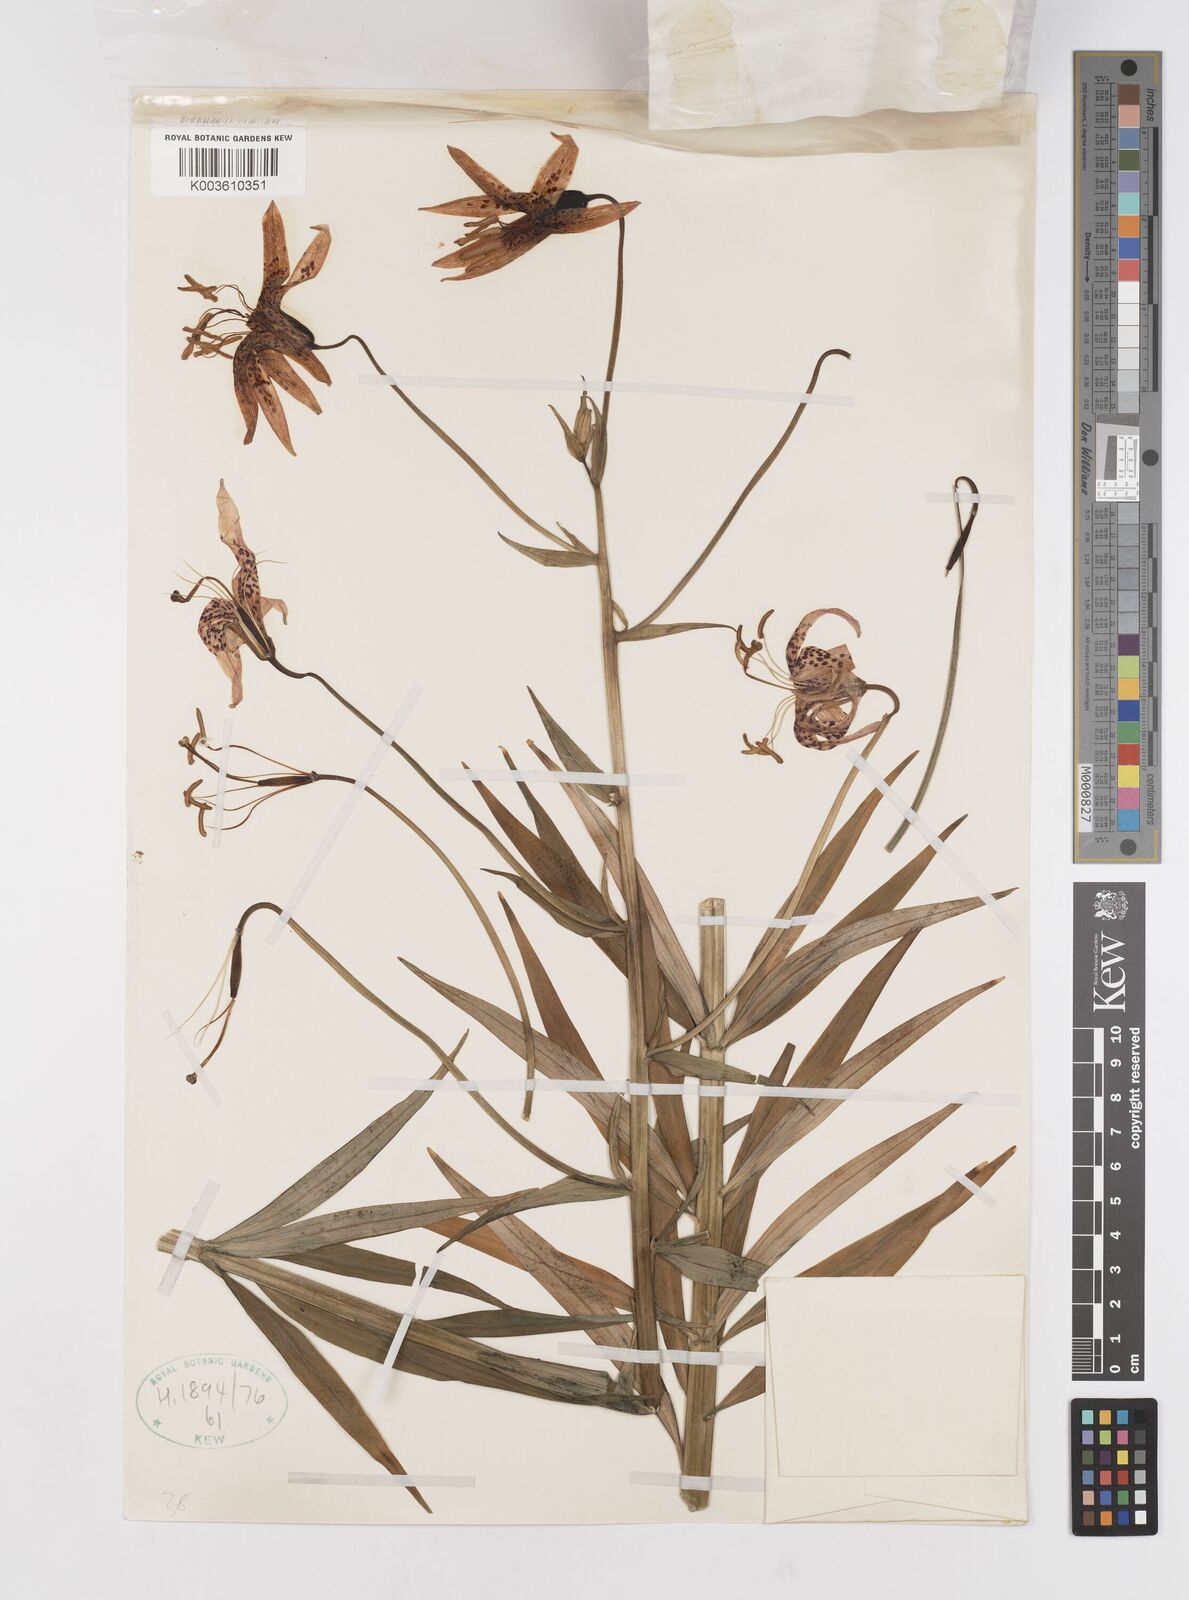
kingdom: Plantae
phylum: Tracheophyta
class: Liliopsida
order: Liliales
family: Liliaceae
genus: Lilium
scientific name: Lilium pardalinum
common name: Panther lily
